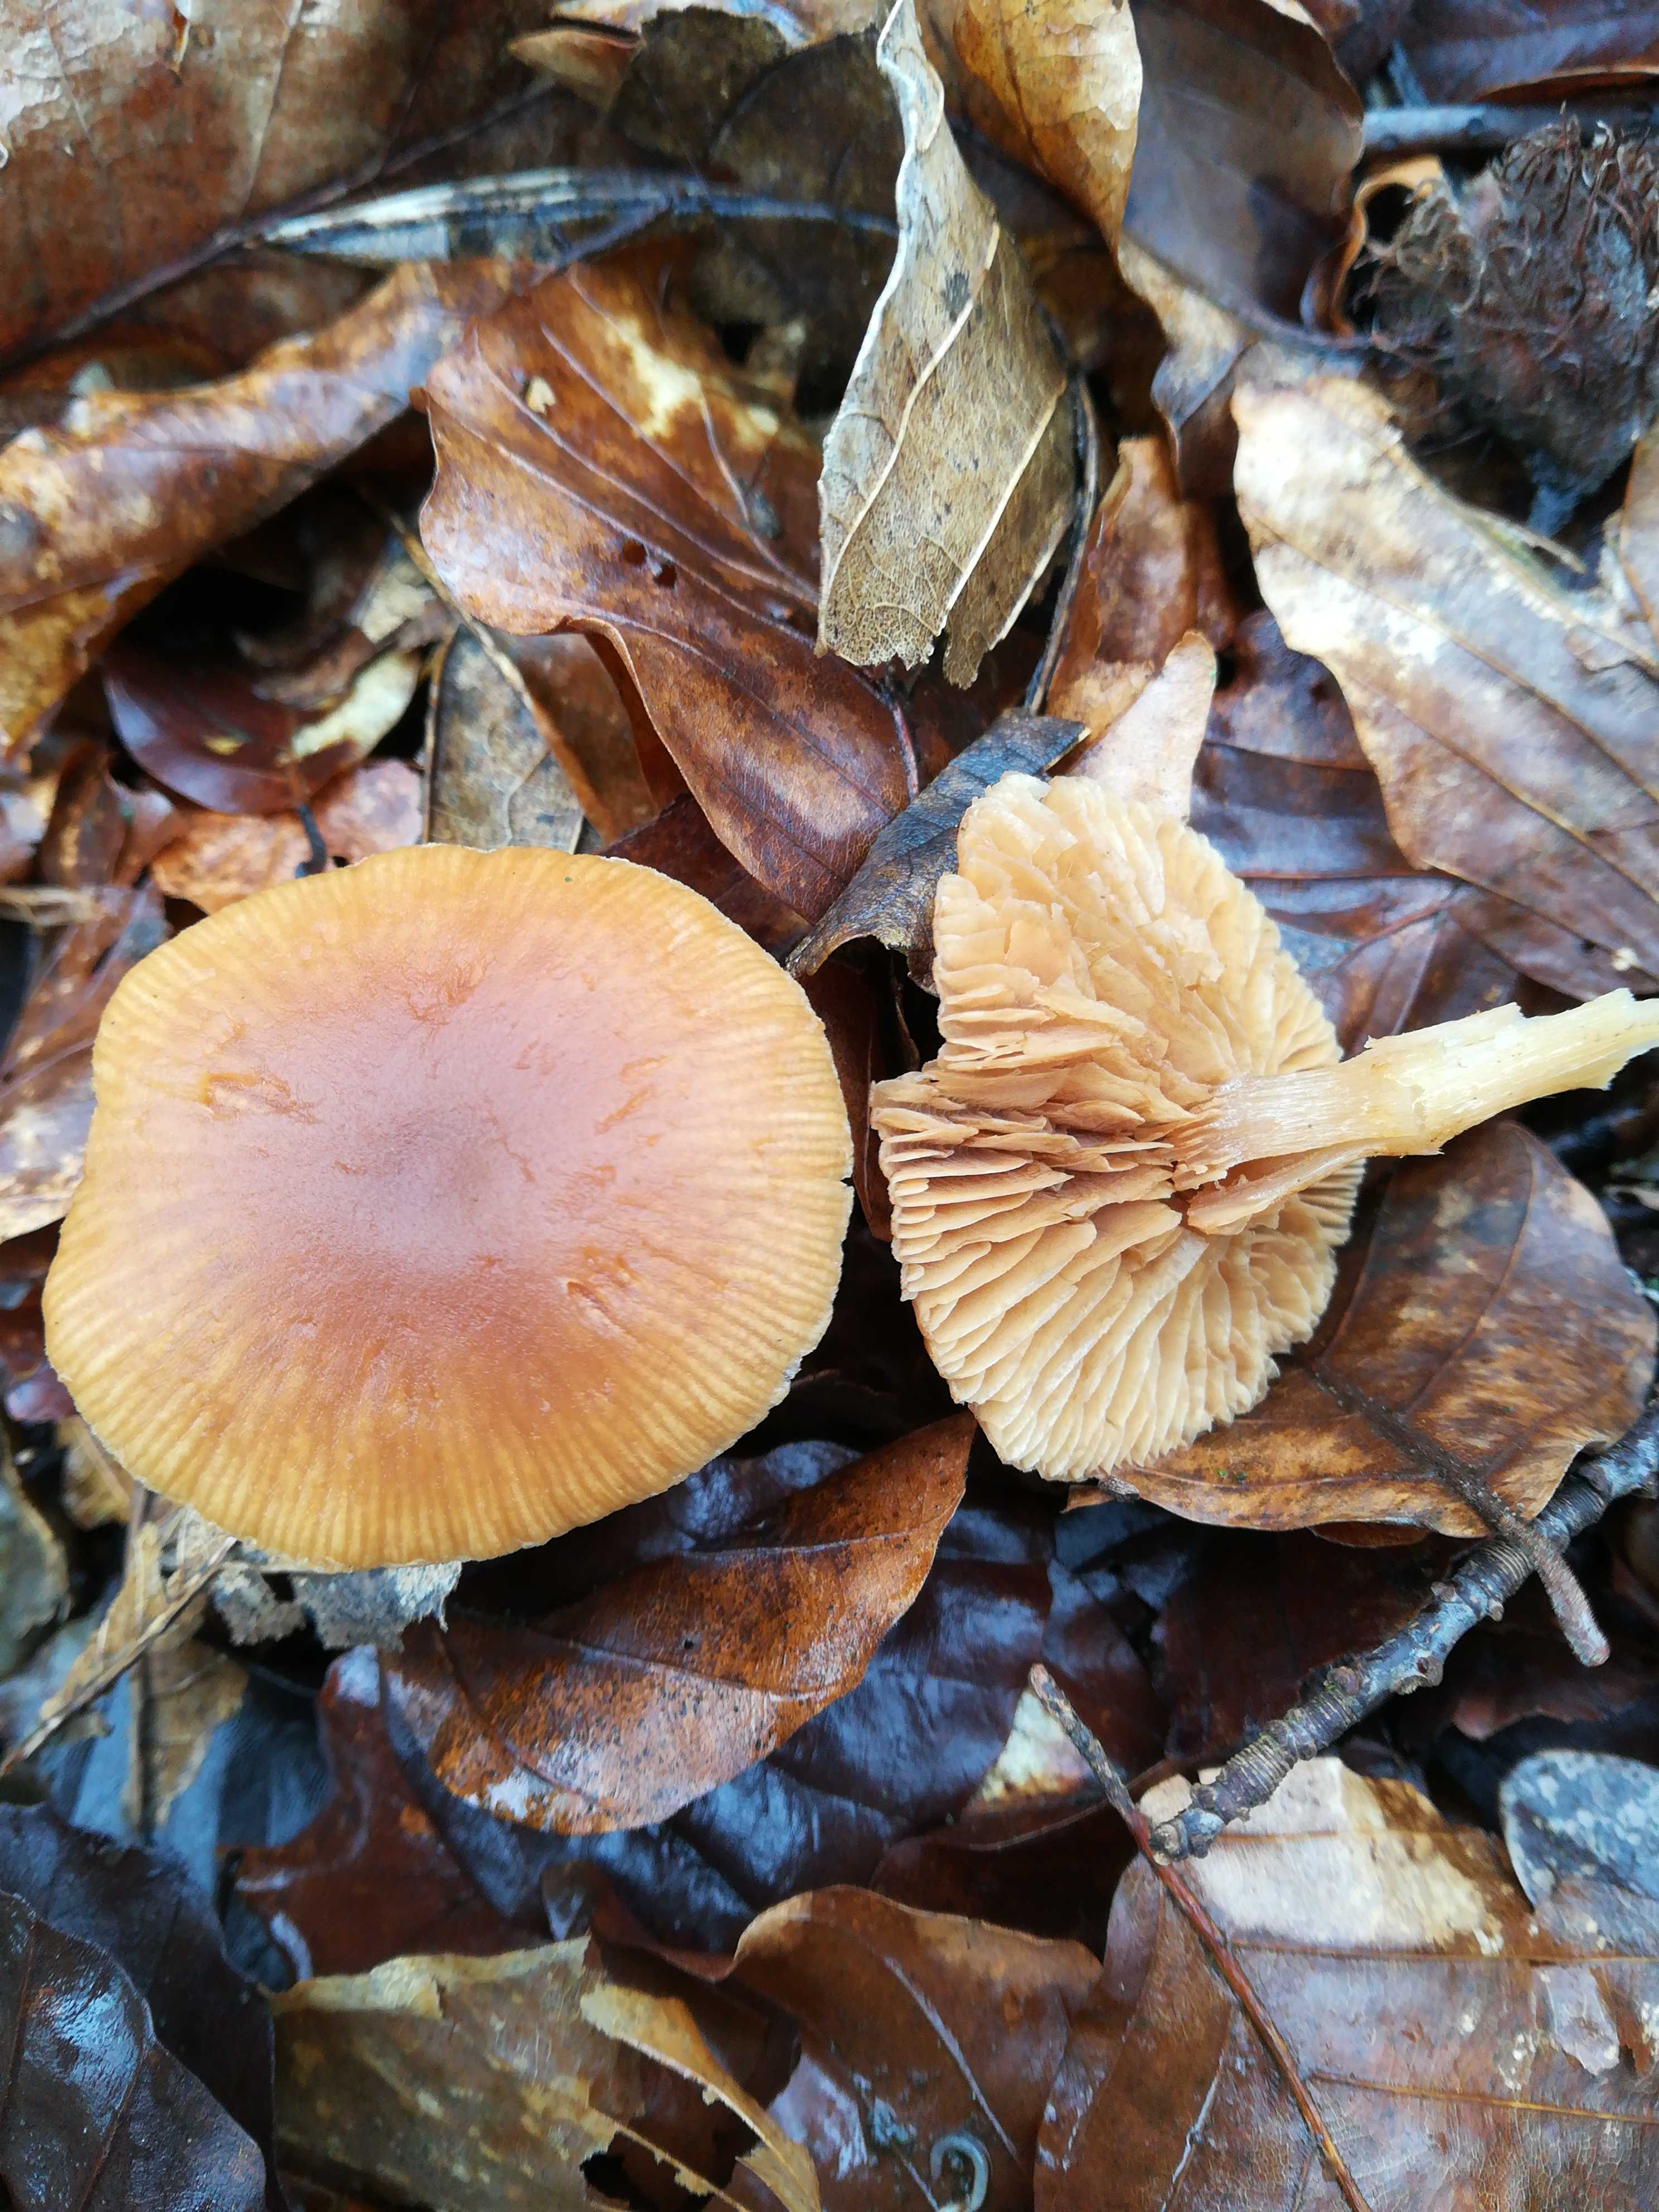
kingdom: Fungi
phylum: Basidiomycota
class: Agaricomycetes
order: Agaricales
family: Tubariaceae
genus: Tubaria
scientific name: Tubaria furfuracea
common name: kliddet fnughat
